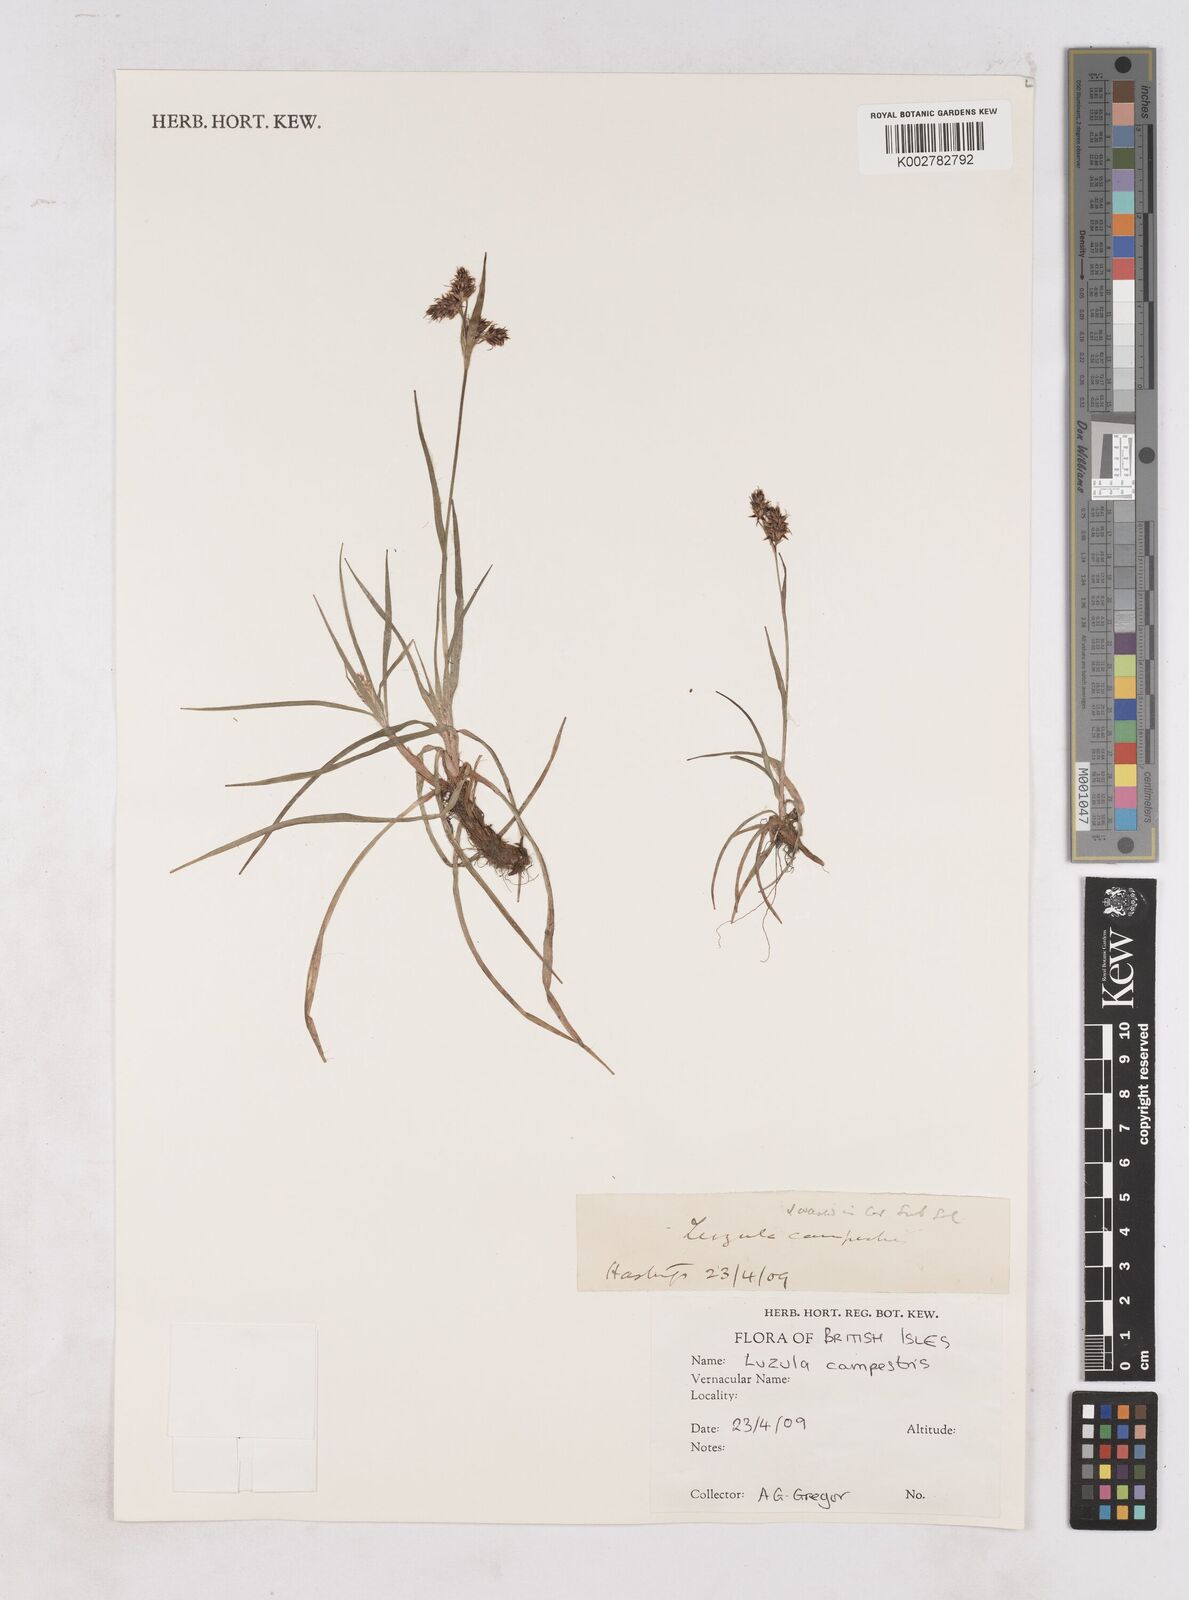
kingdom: Plantae
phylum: Tracheophyta
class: Liliopsida
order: Poales
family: Juncaceae
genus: Luzula
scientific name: Luzula campestris
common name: Field wood-rush
